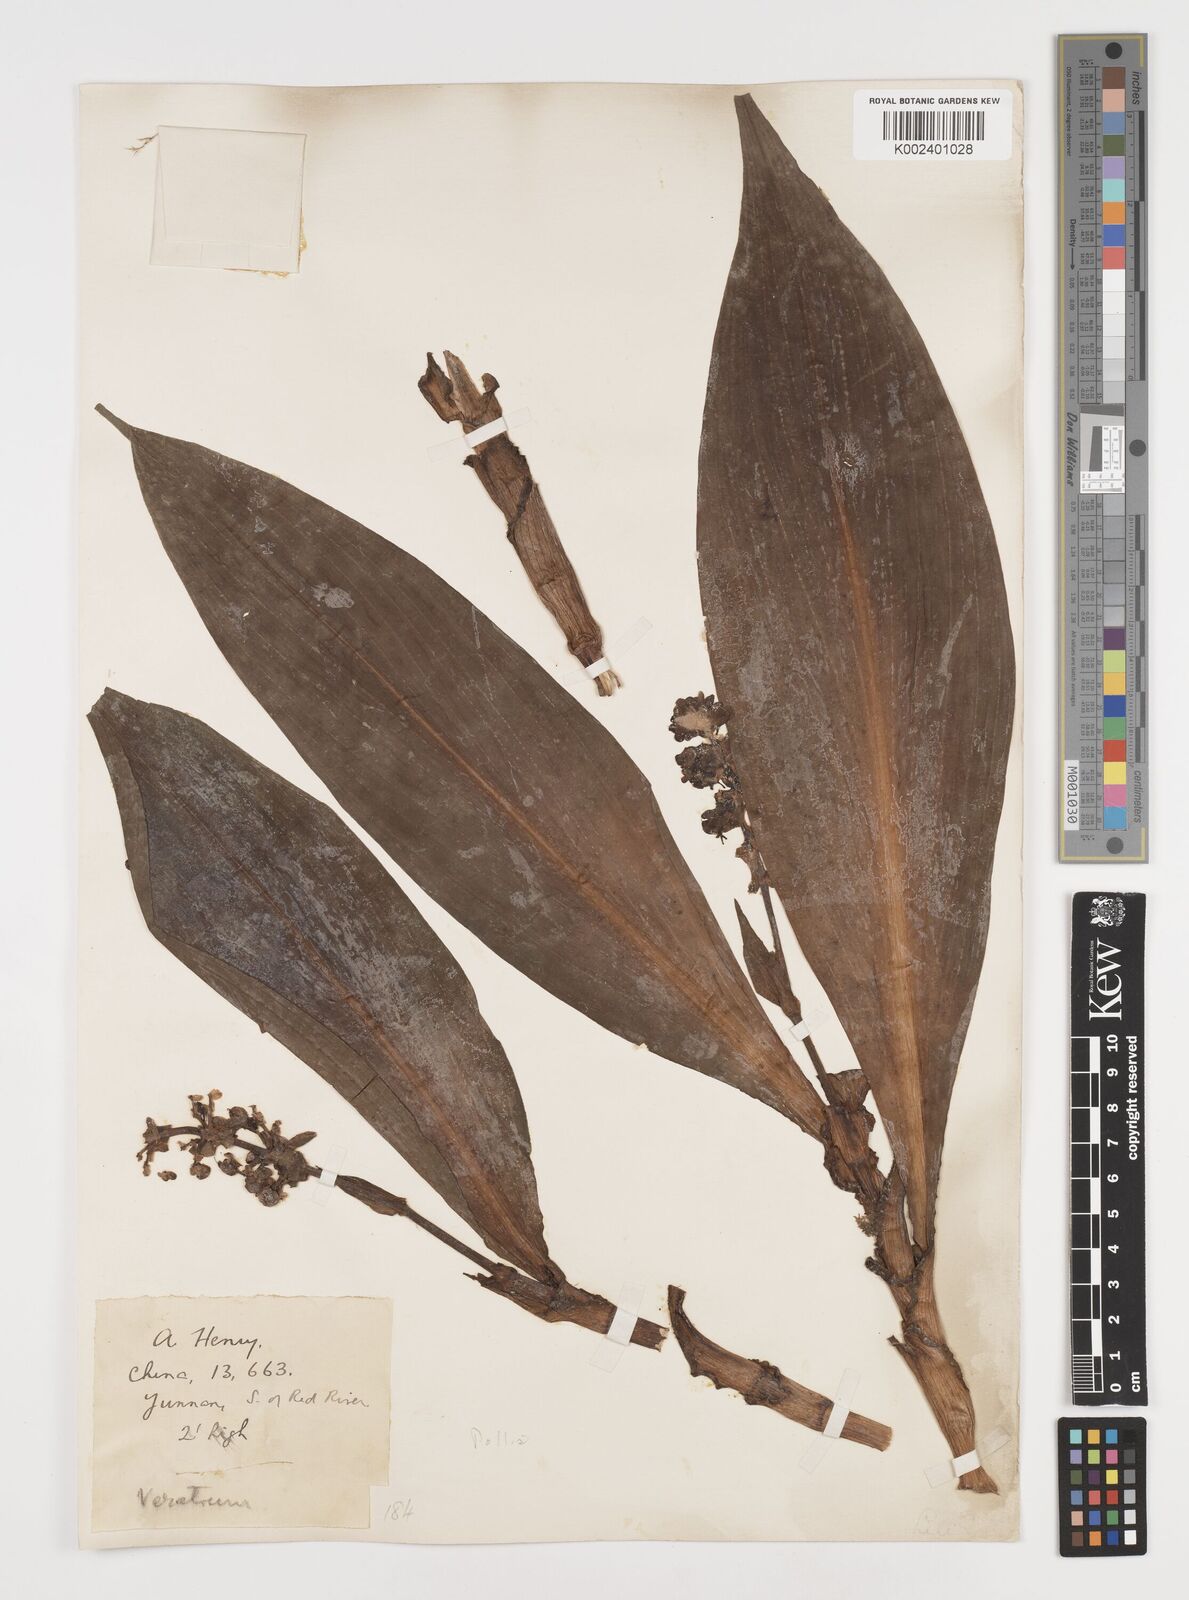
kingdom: Plantae
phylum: Tracheophyta
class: Liliopsida
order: Commelinales
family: Commelinaceae
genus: Pollia
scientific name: Pollia
